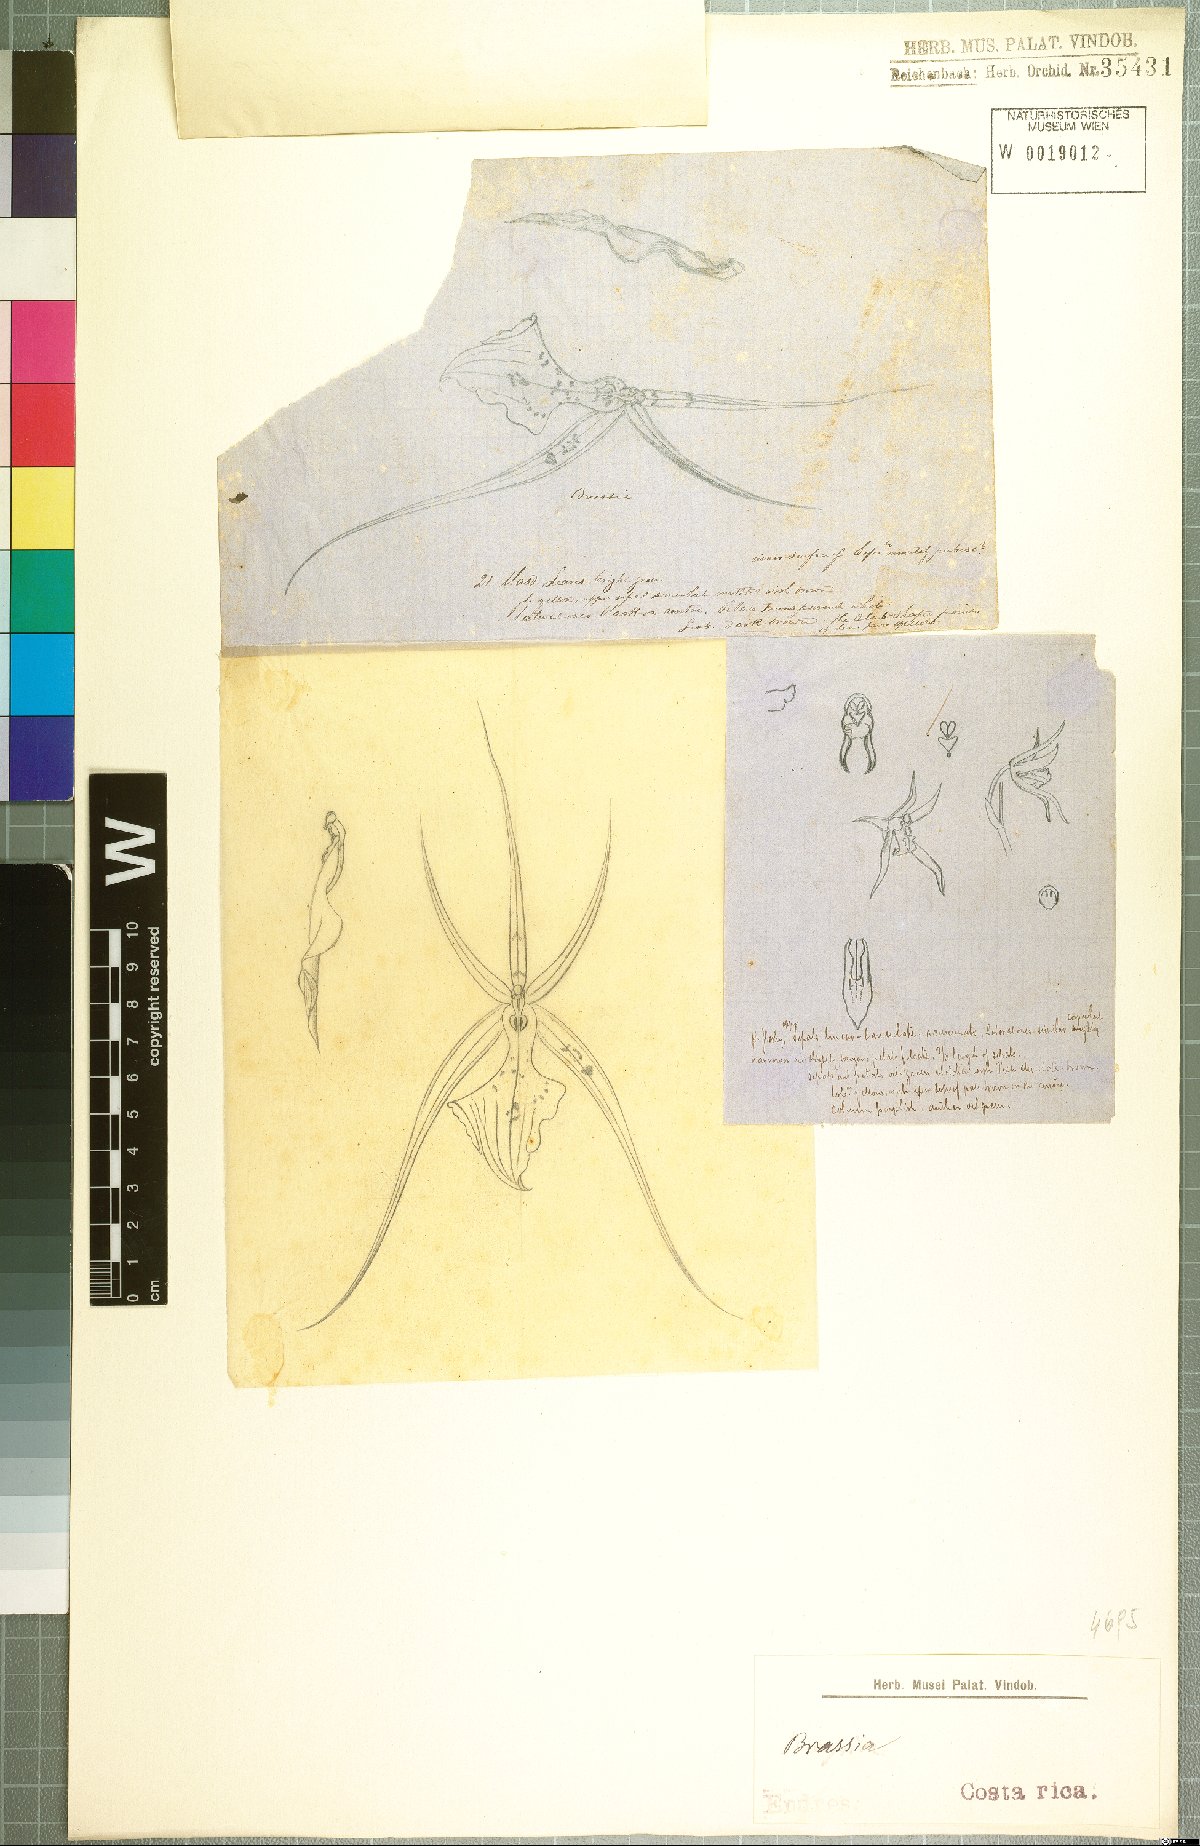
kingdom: Plantae
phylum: Tracheophyta
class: Liliopsida
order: Asparagales
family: Orchidaceae
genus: Brassia
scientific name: Brassia
